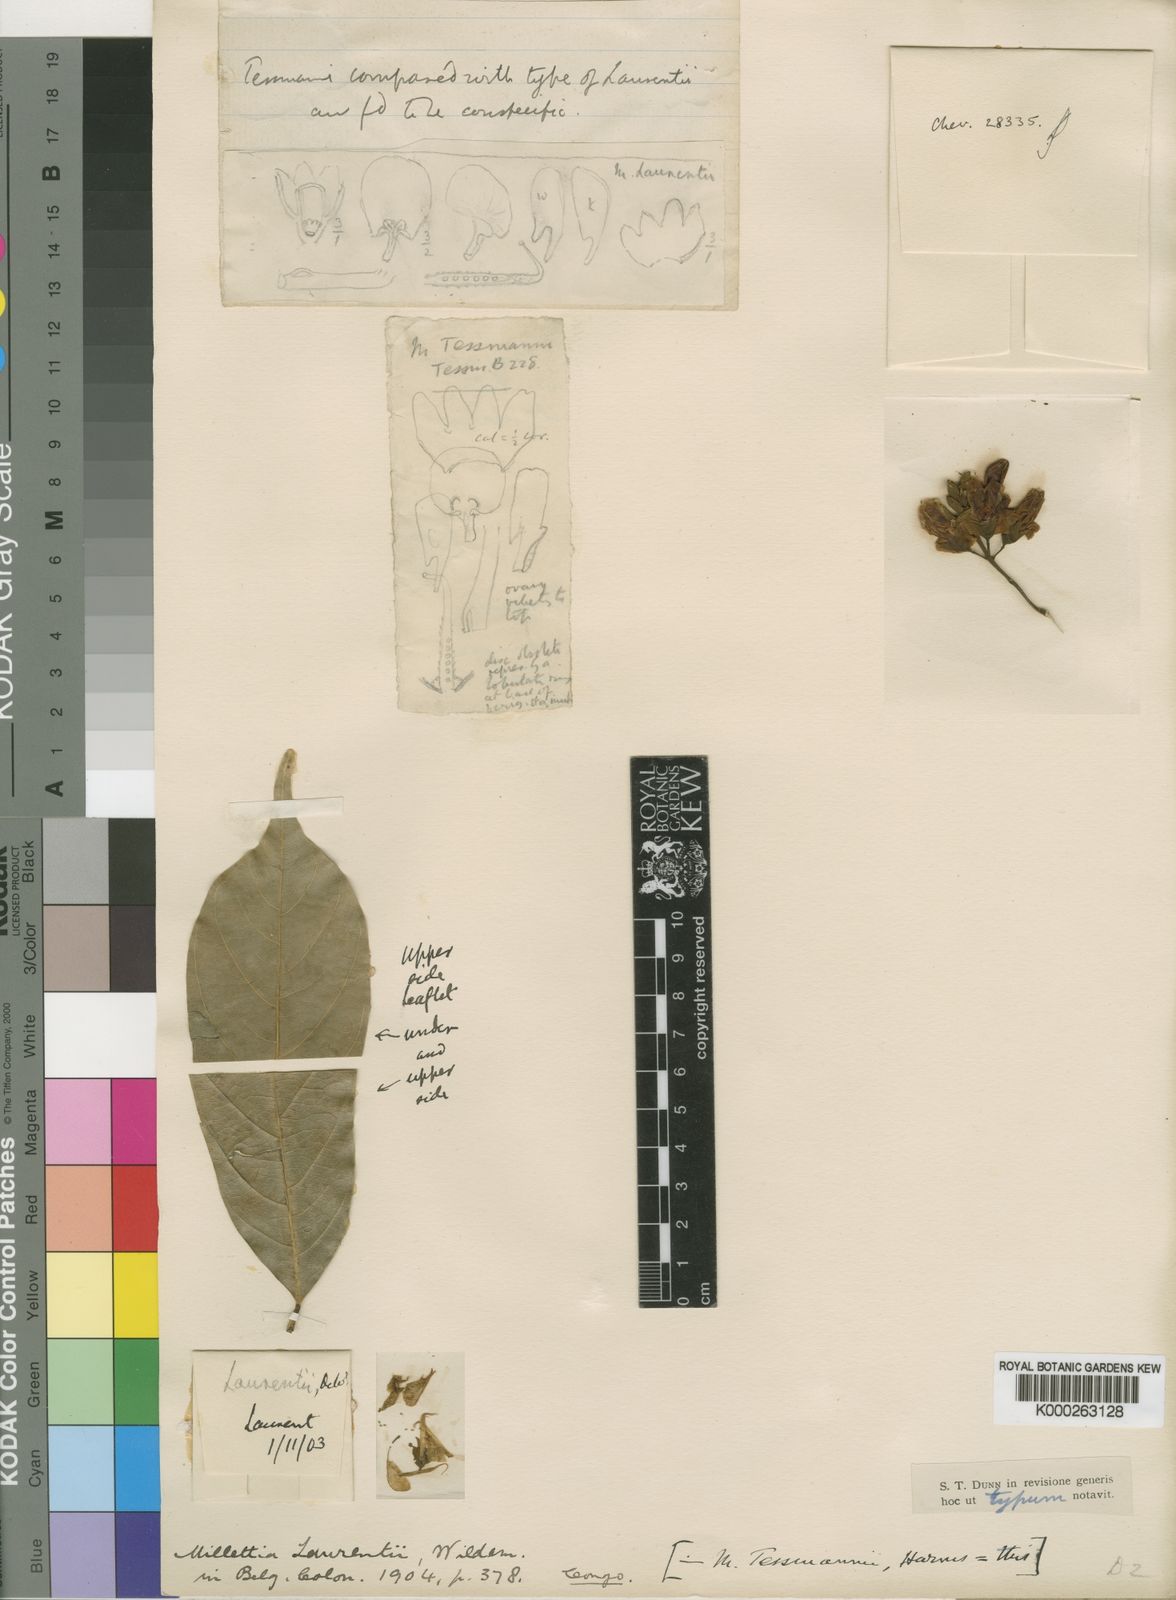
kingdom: Plantae
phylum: Tracheophyta
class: Magnoliopsida
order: Fabales
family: Fabaceae
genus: Millettia
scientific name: Millettia laurentii
